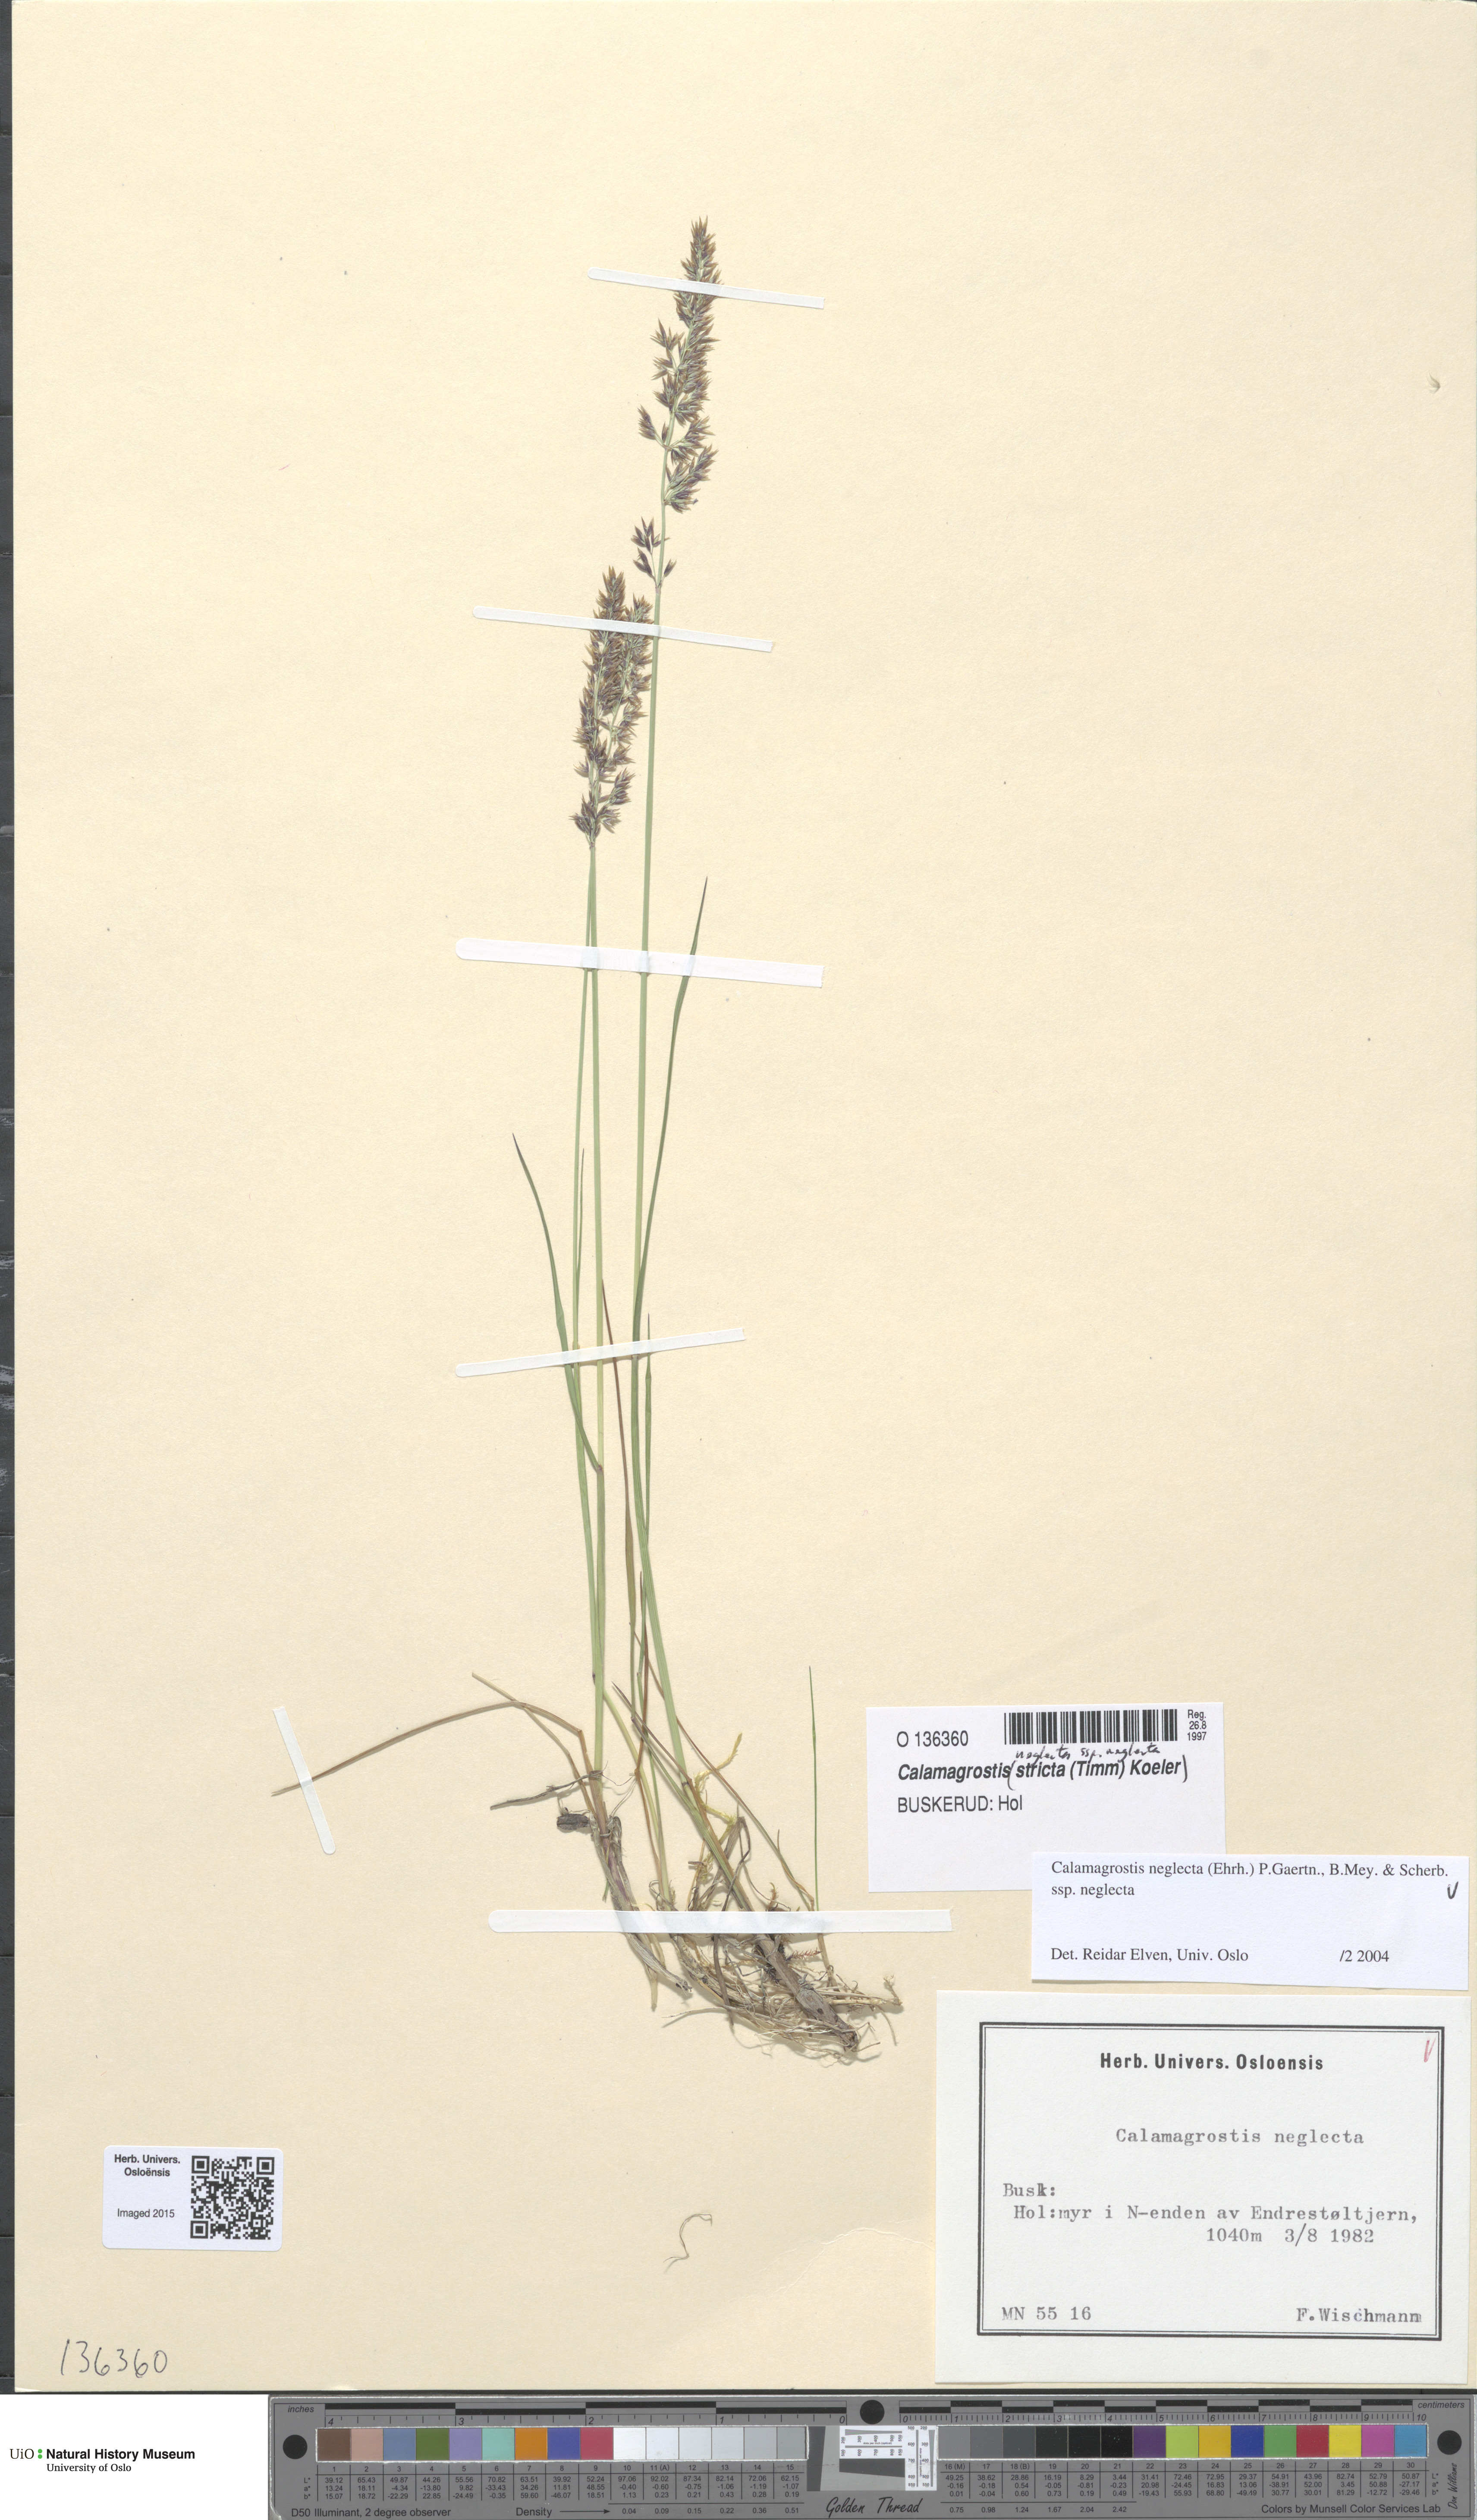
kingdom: Plantae
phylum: Tracheophyta
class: Liliopsida
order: Poales
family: Poaceae
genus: Achnatherum
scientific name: Achnatherum calamagrostis
